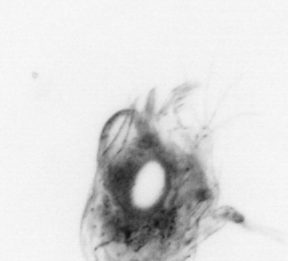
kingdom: Animalia
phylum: Arthropoda
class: Malacostraca
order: Decapoda
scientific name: Decapoda
